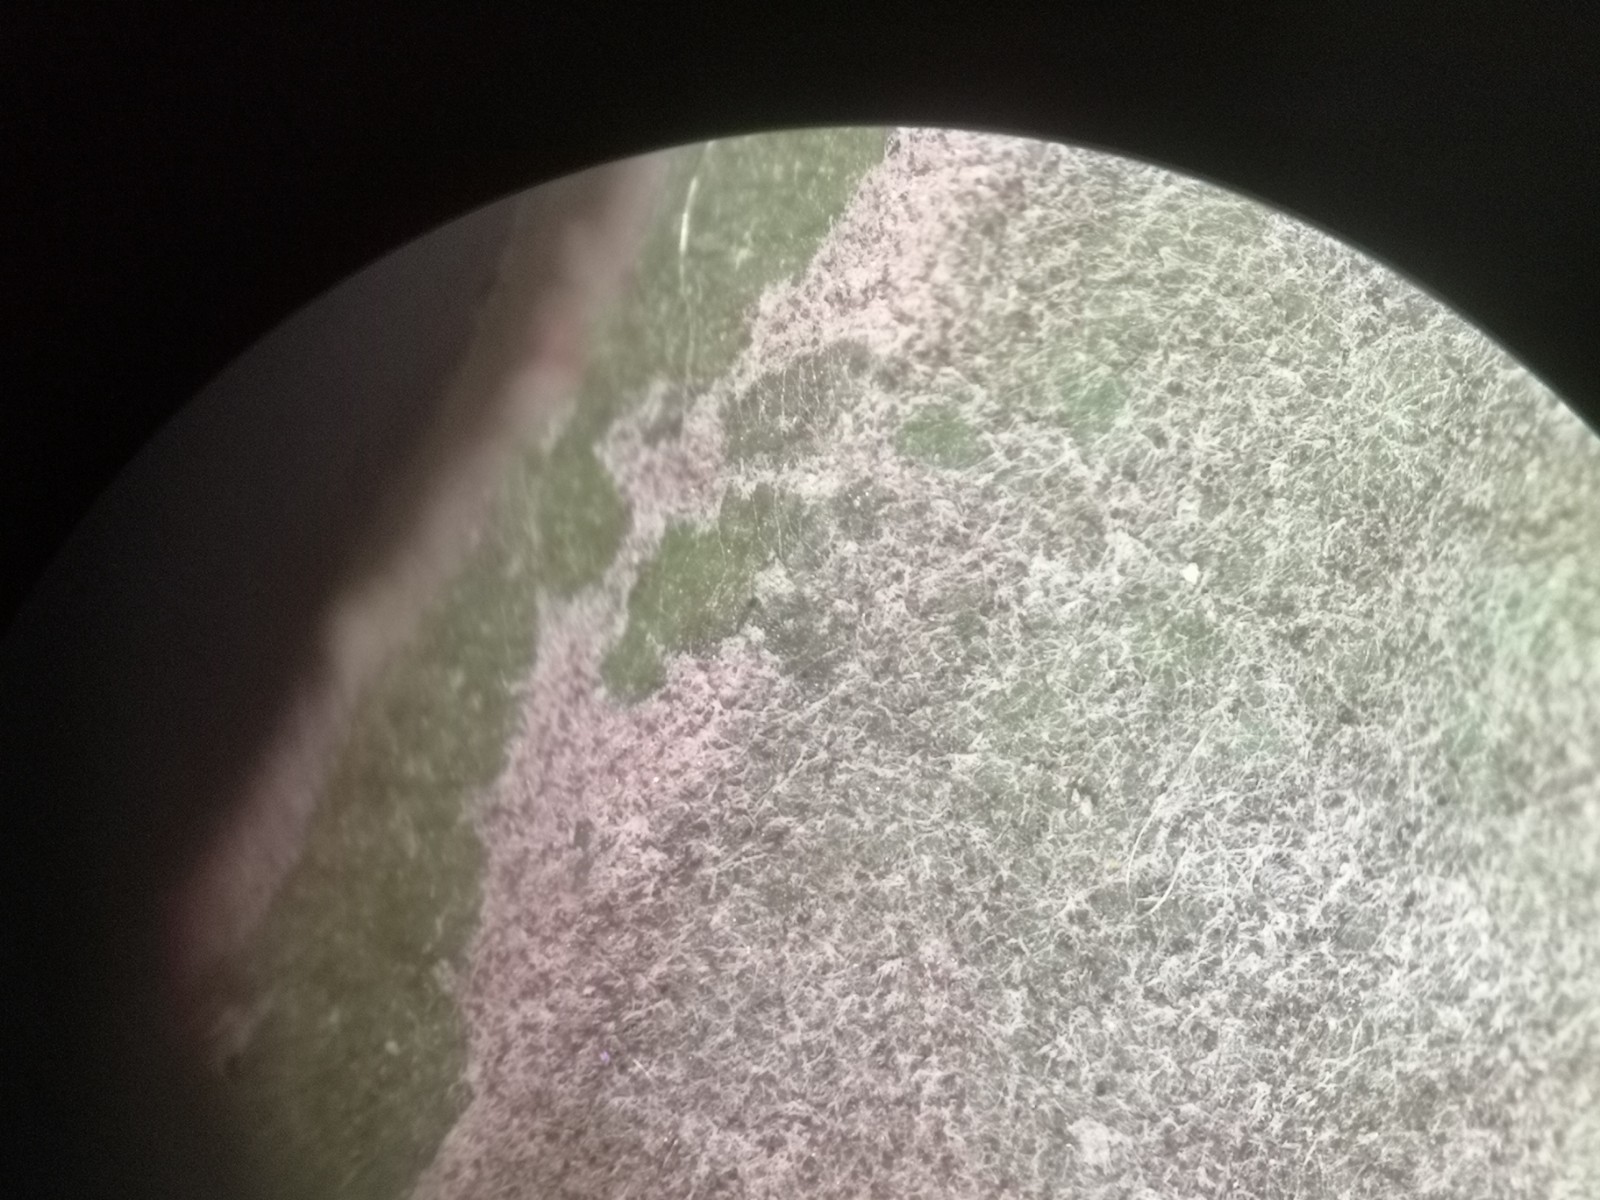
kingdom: Fungi
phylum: Ascomycota
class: Leotiomycetes
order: Helotiales
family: Erysiphaceae
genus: Golovinomyces
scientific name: Golovinomyces asterum
